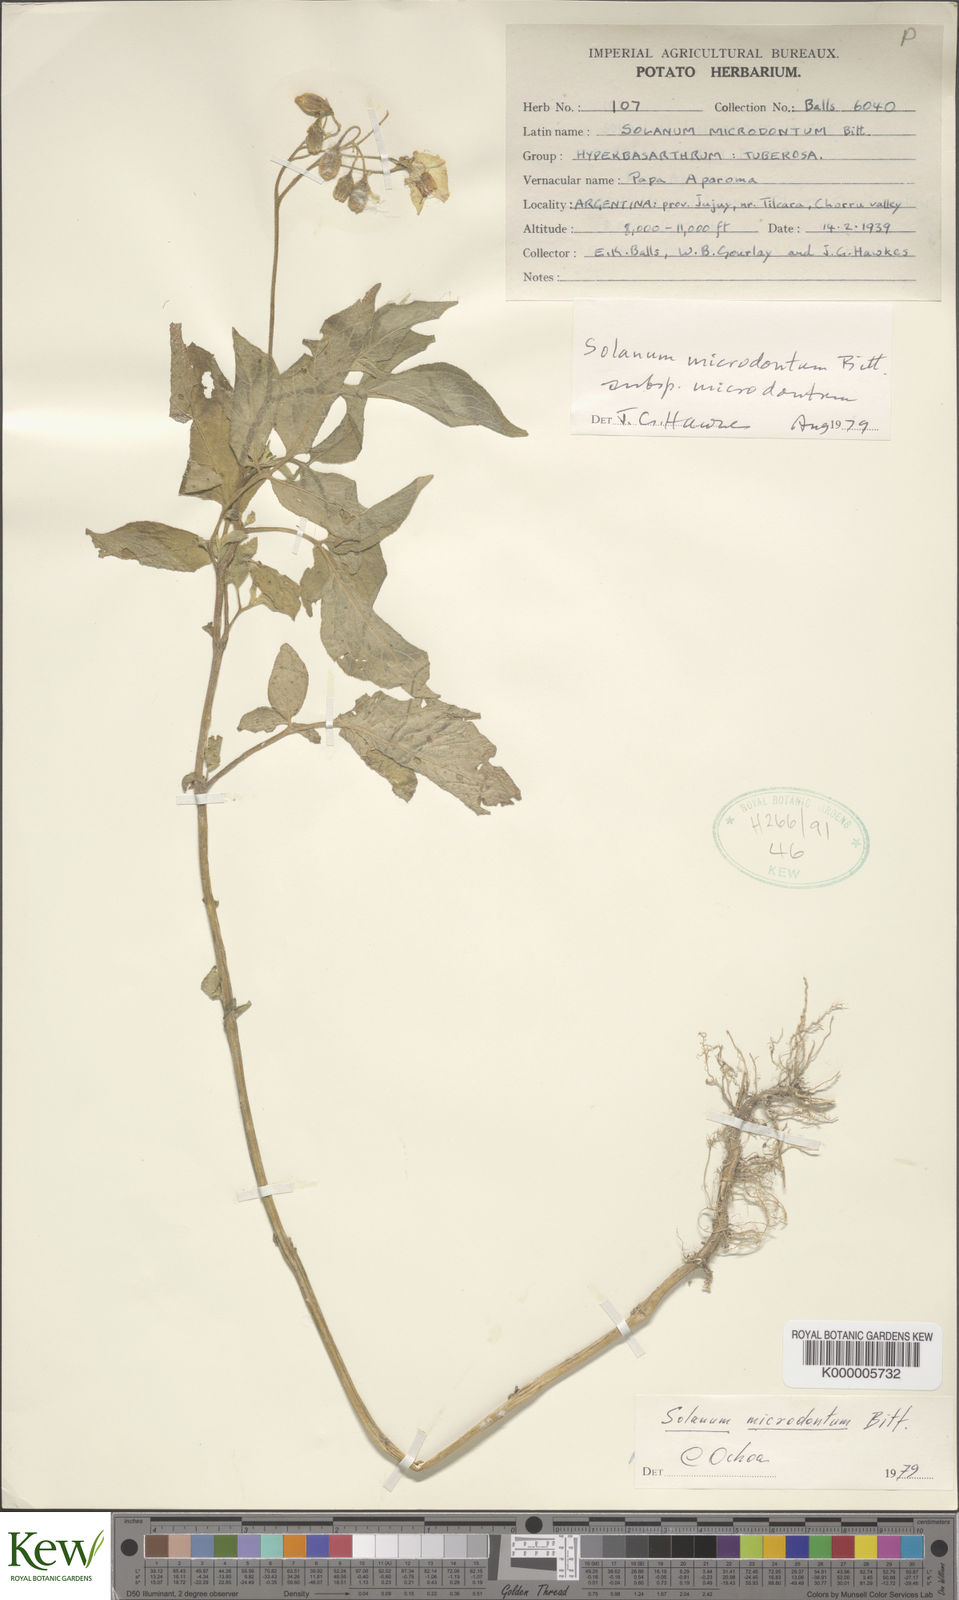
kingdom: Plantae
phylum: Tracheophyta
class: Magnoliopsida
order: Solanales
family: Solanaceae
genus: Solanum
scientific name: Solanum microdontum
